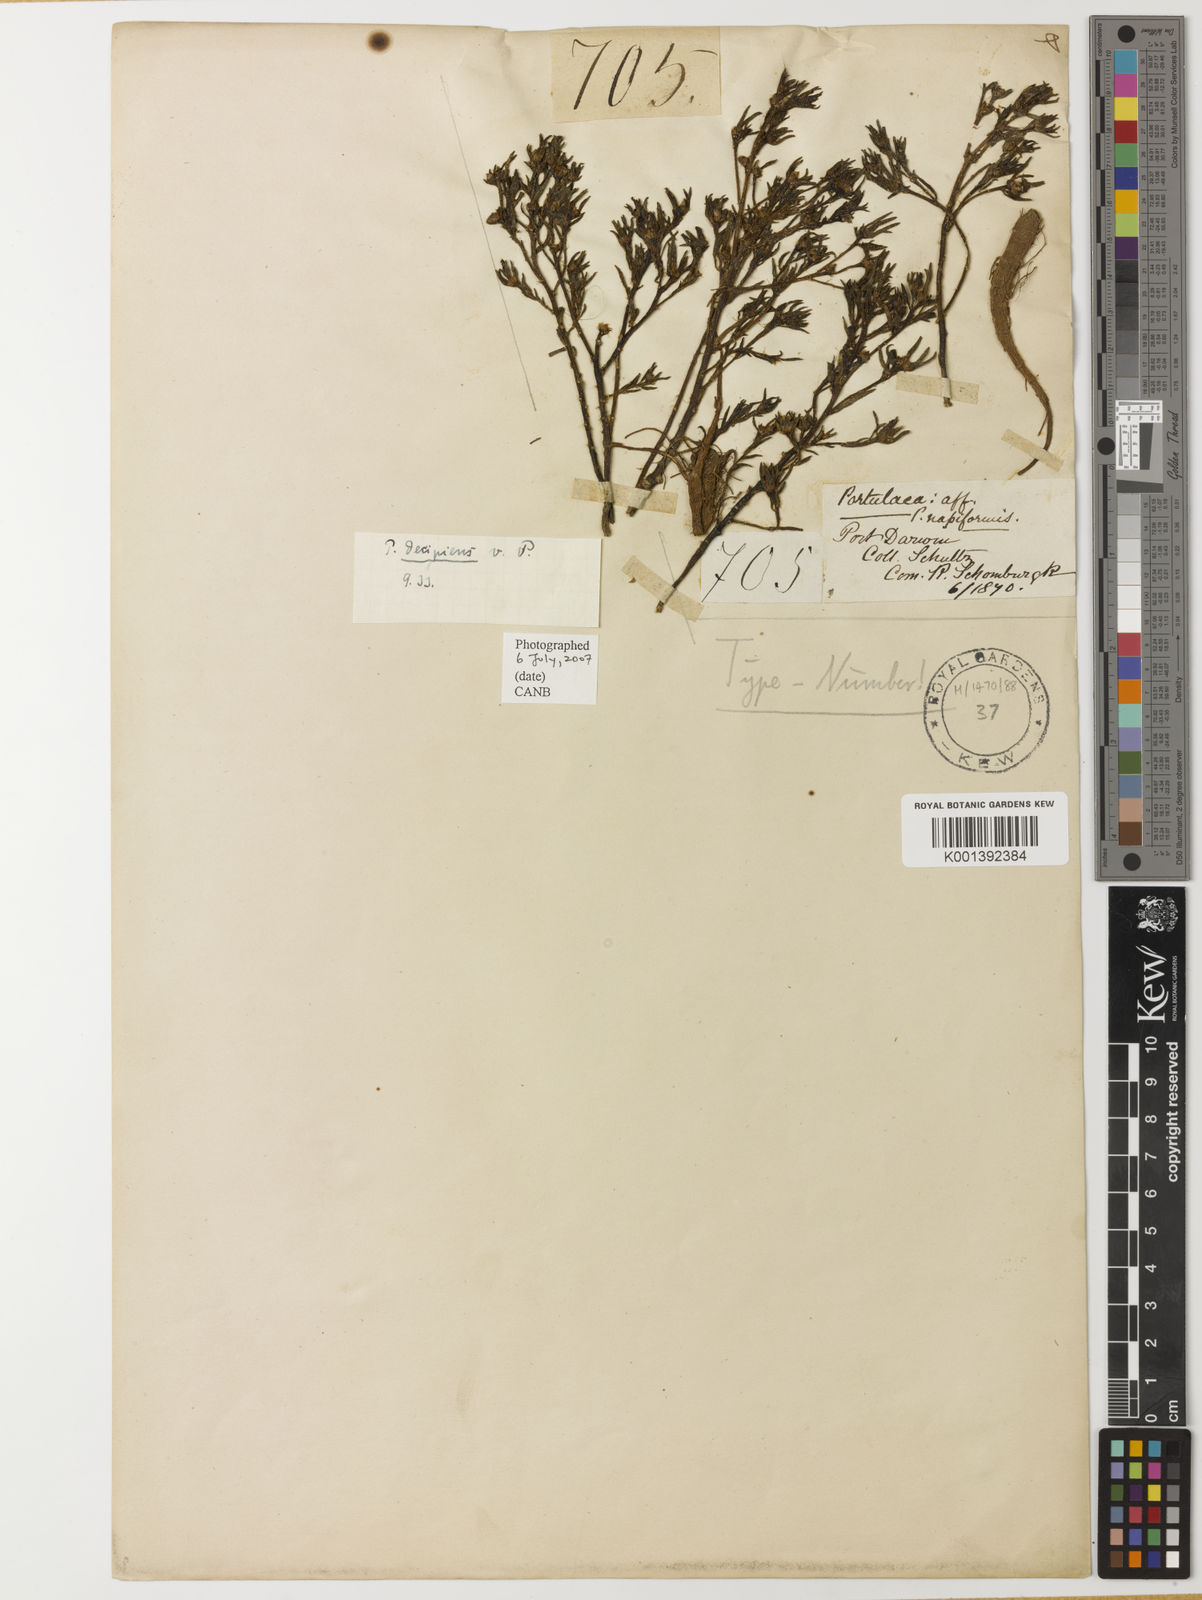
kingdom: Plantae
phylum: Tracheophyta
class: Magnoliopsida
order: Caryophyllales
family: Portulacaceae
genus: Portulaca
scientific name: Portulaca
